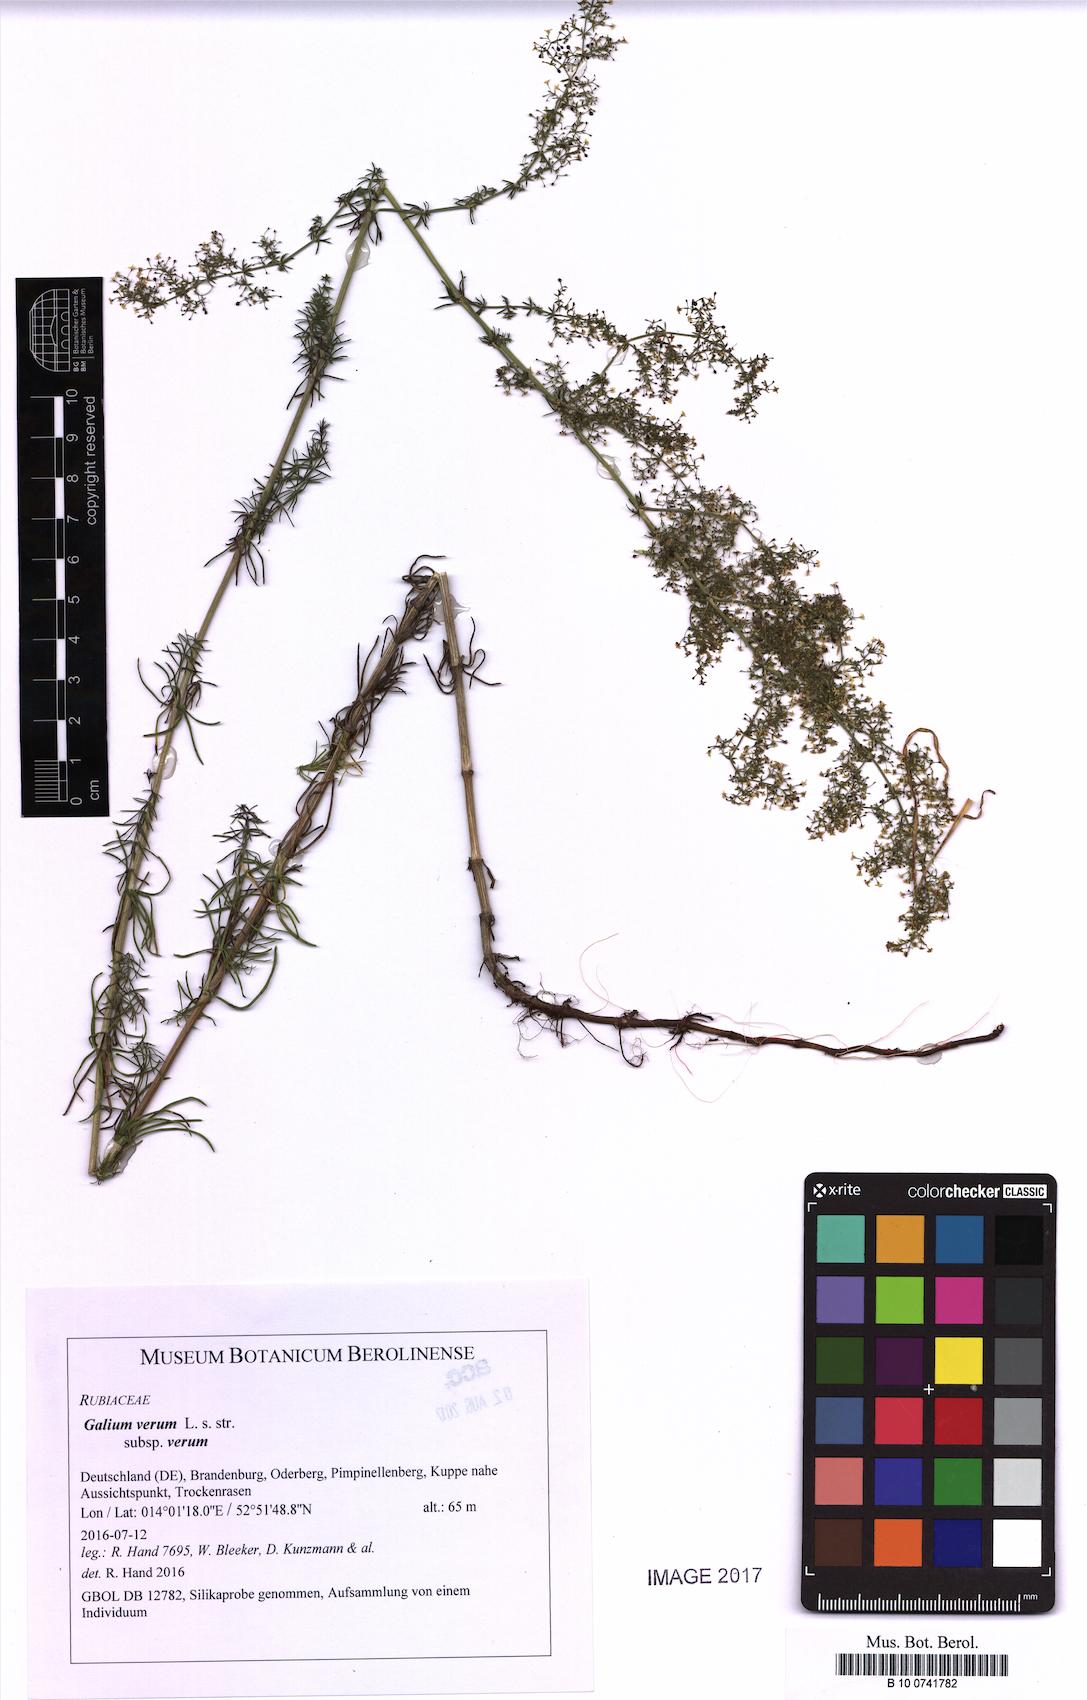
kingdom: Plantae
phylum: Tracheophyta
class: Magnoliopsida
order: Gentianales
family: Rubiaceae
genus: Galium
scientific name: Galium verum
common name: Lady's bedstraw
